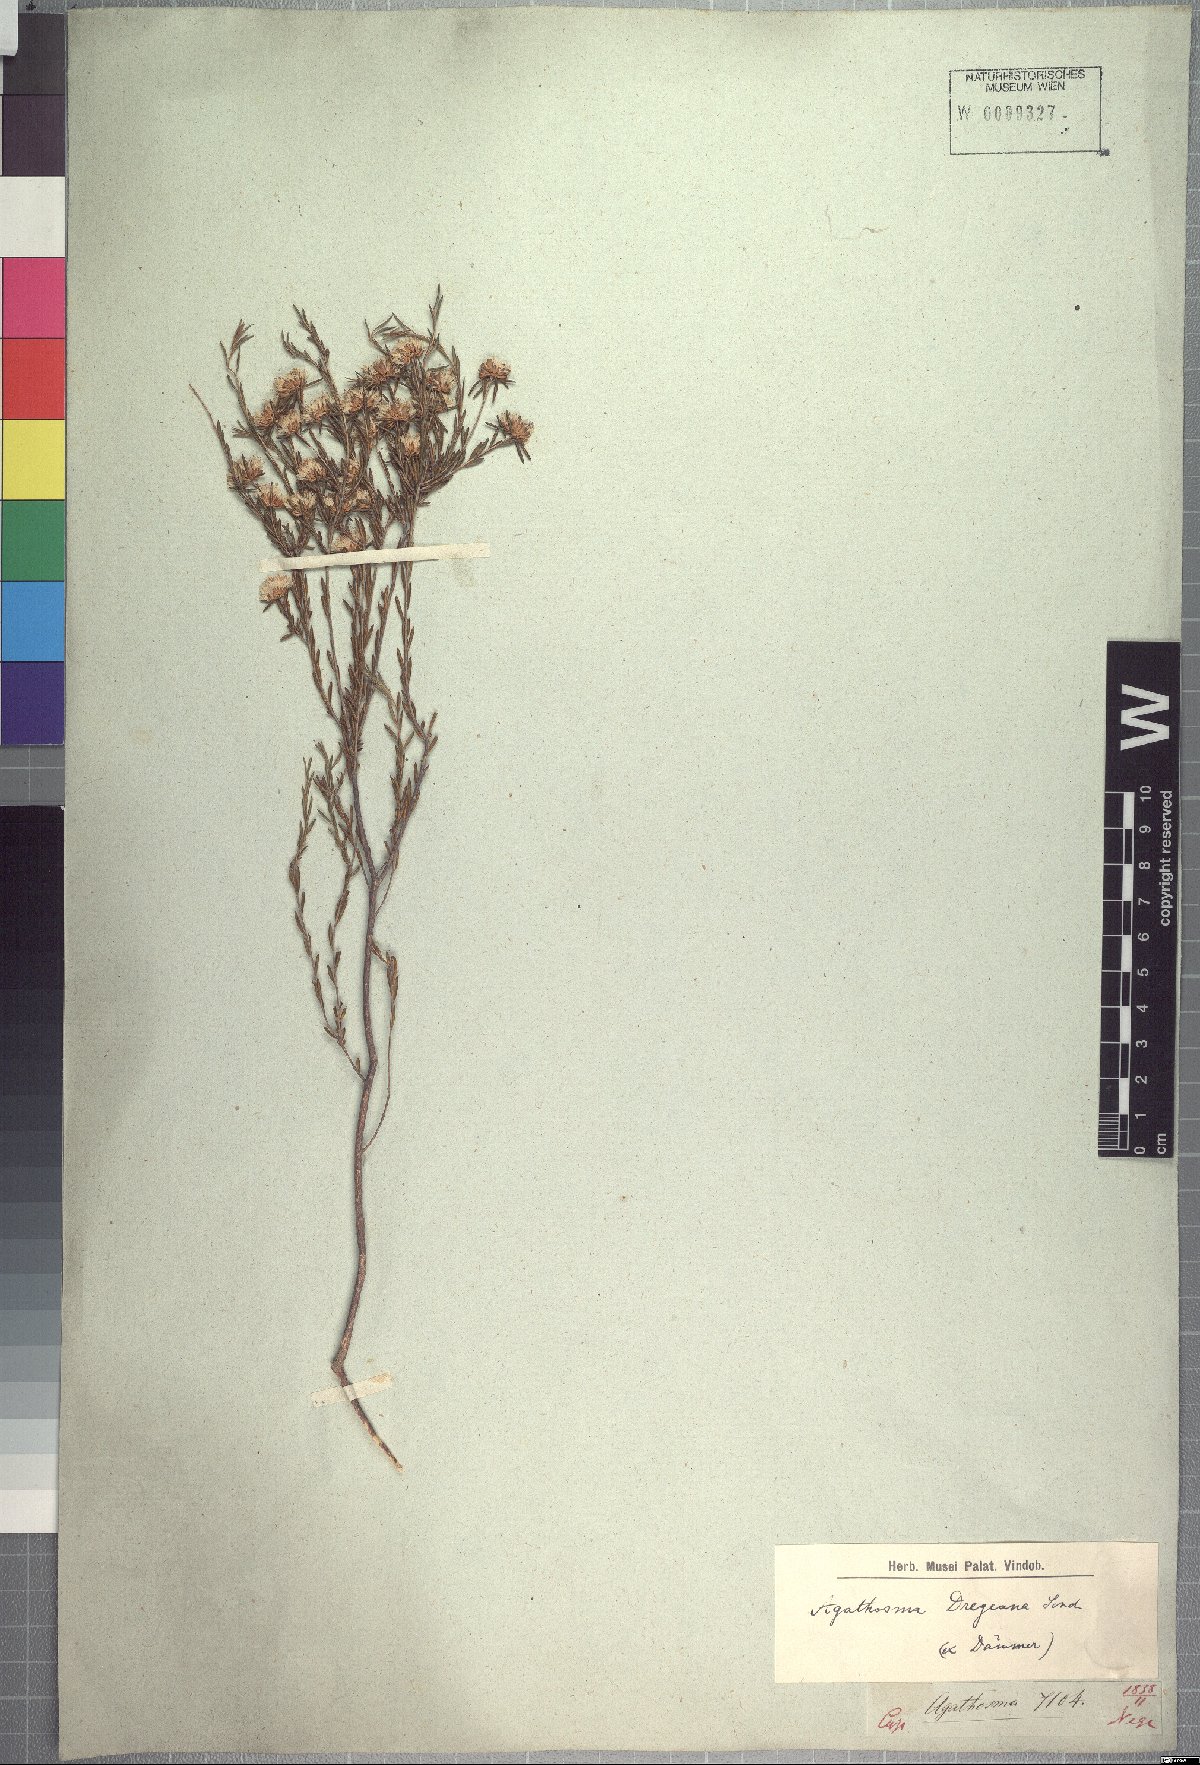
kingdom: Plantae
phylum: Tracheophyta
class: Magnoliopsida
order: Sapindales
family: Rutaceae
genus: Agathosma
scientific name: Agathosma dregeana
